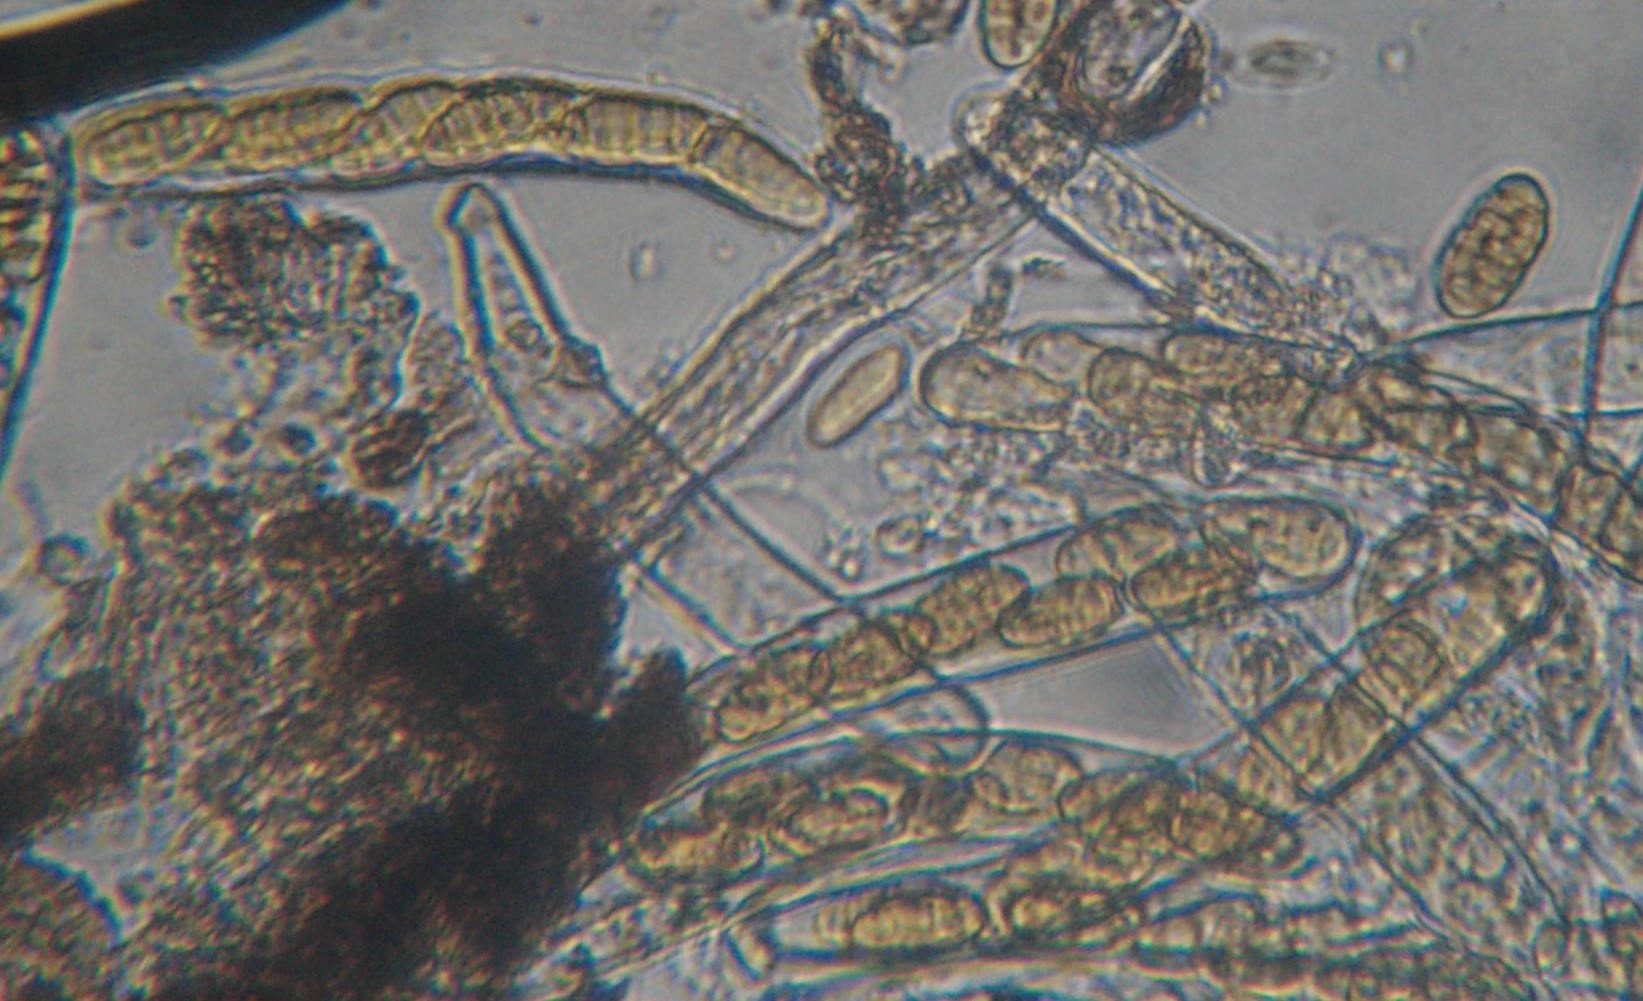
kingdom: Fungi
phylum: Ascomycota
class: Dothideomycetes
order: Pleosporales
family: Pleosporaceae
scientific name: Pleosporaceae
